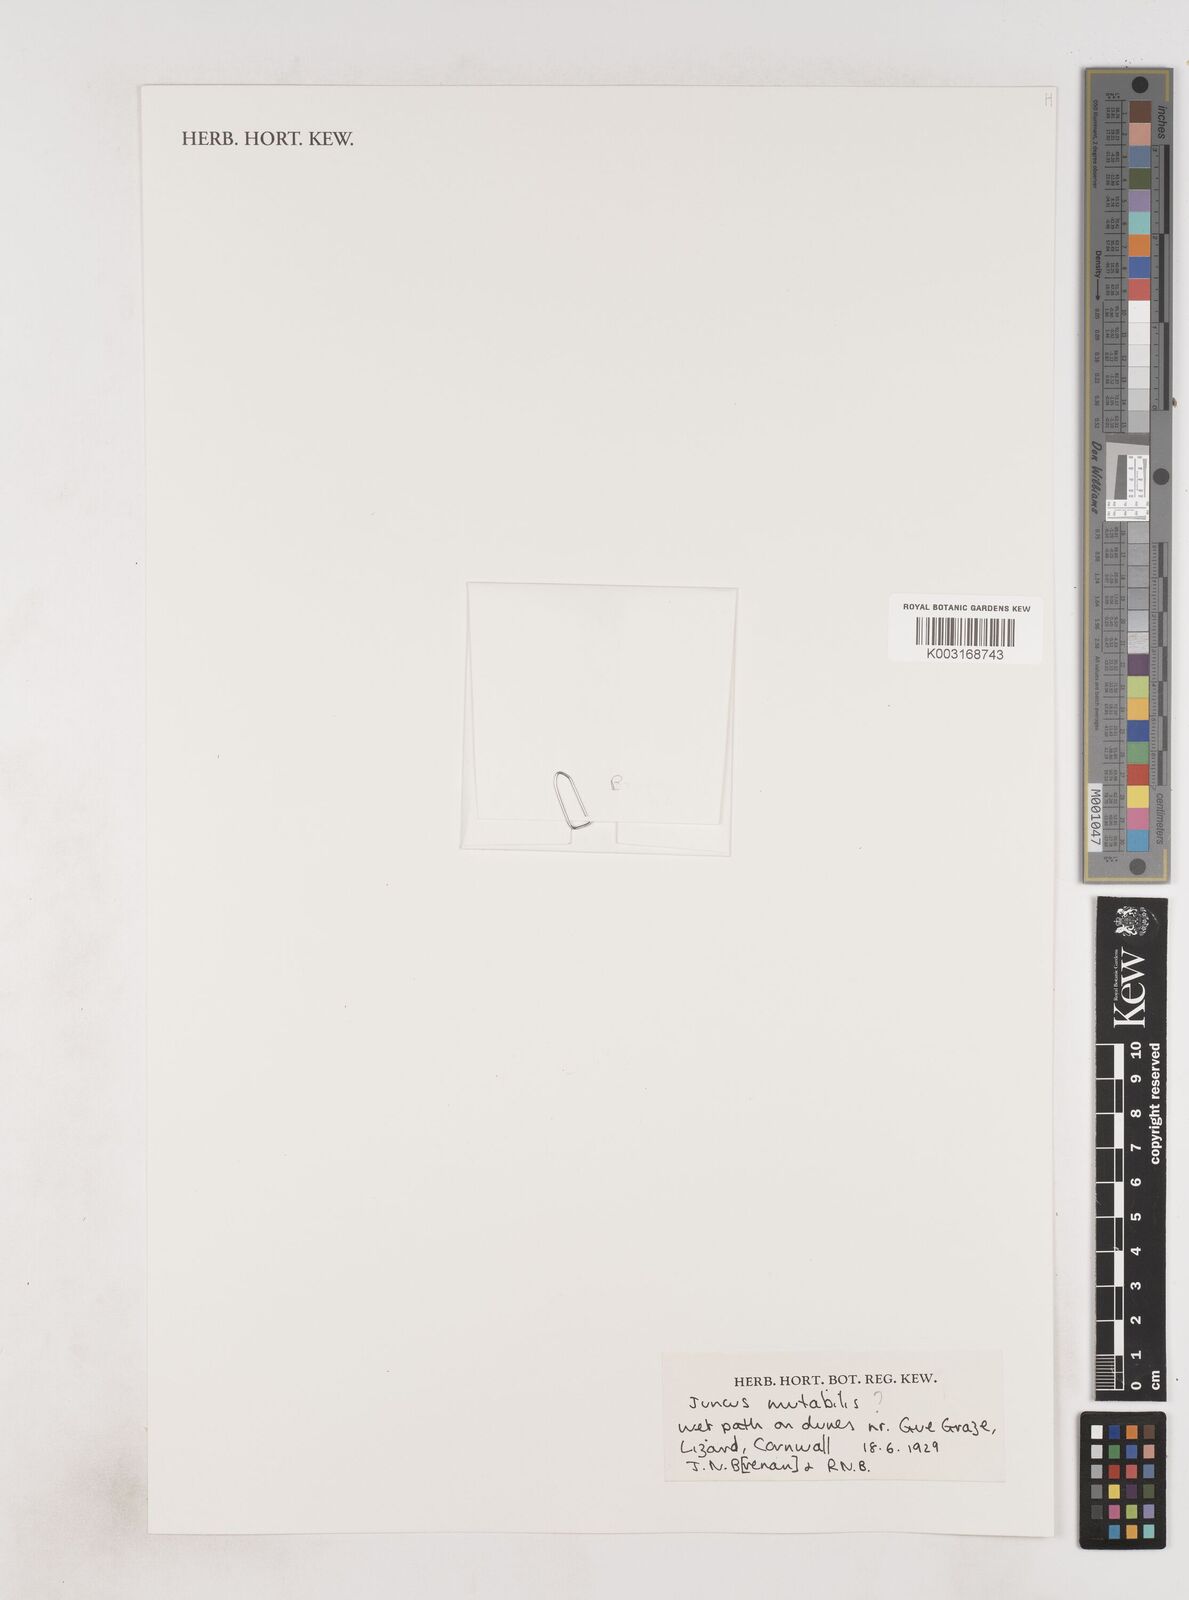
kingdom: Plantae
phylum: Tracheophyta
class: Liliopsida
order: Poales
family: Juncaceae
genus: Juncus
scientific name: Juncus pygmaeus
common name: Pigmy rush
